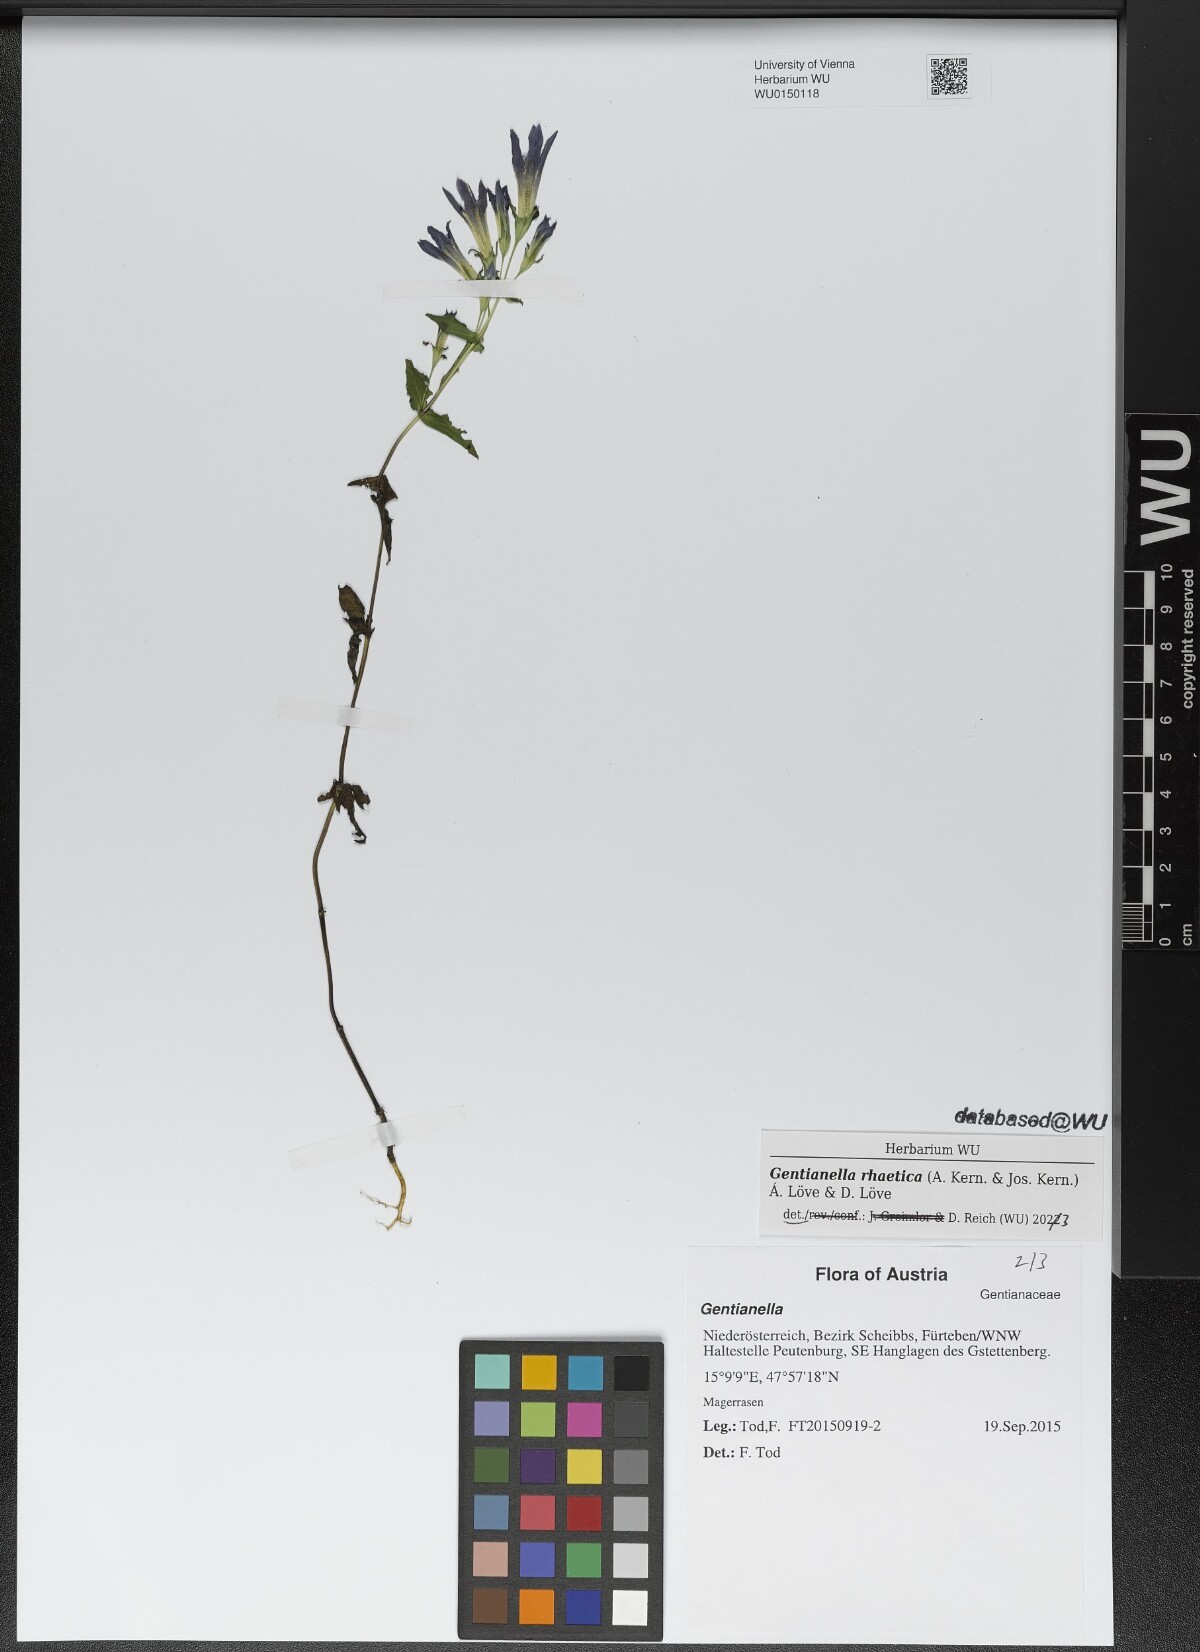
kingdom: Plantae
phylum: Tracheophyta
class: Magnoliopsida
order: Gentianales
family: Gentianaceae
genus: Gentianella
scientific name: Gentianella rhaetica
